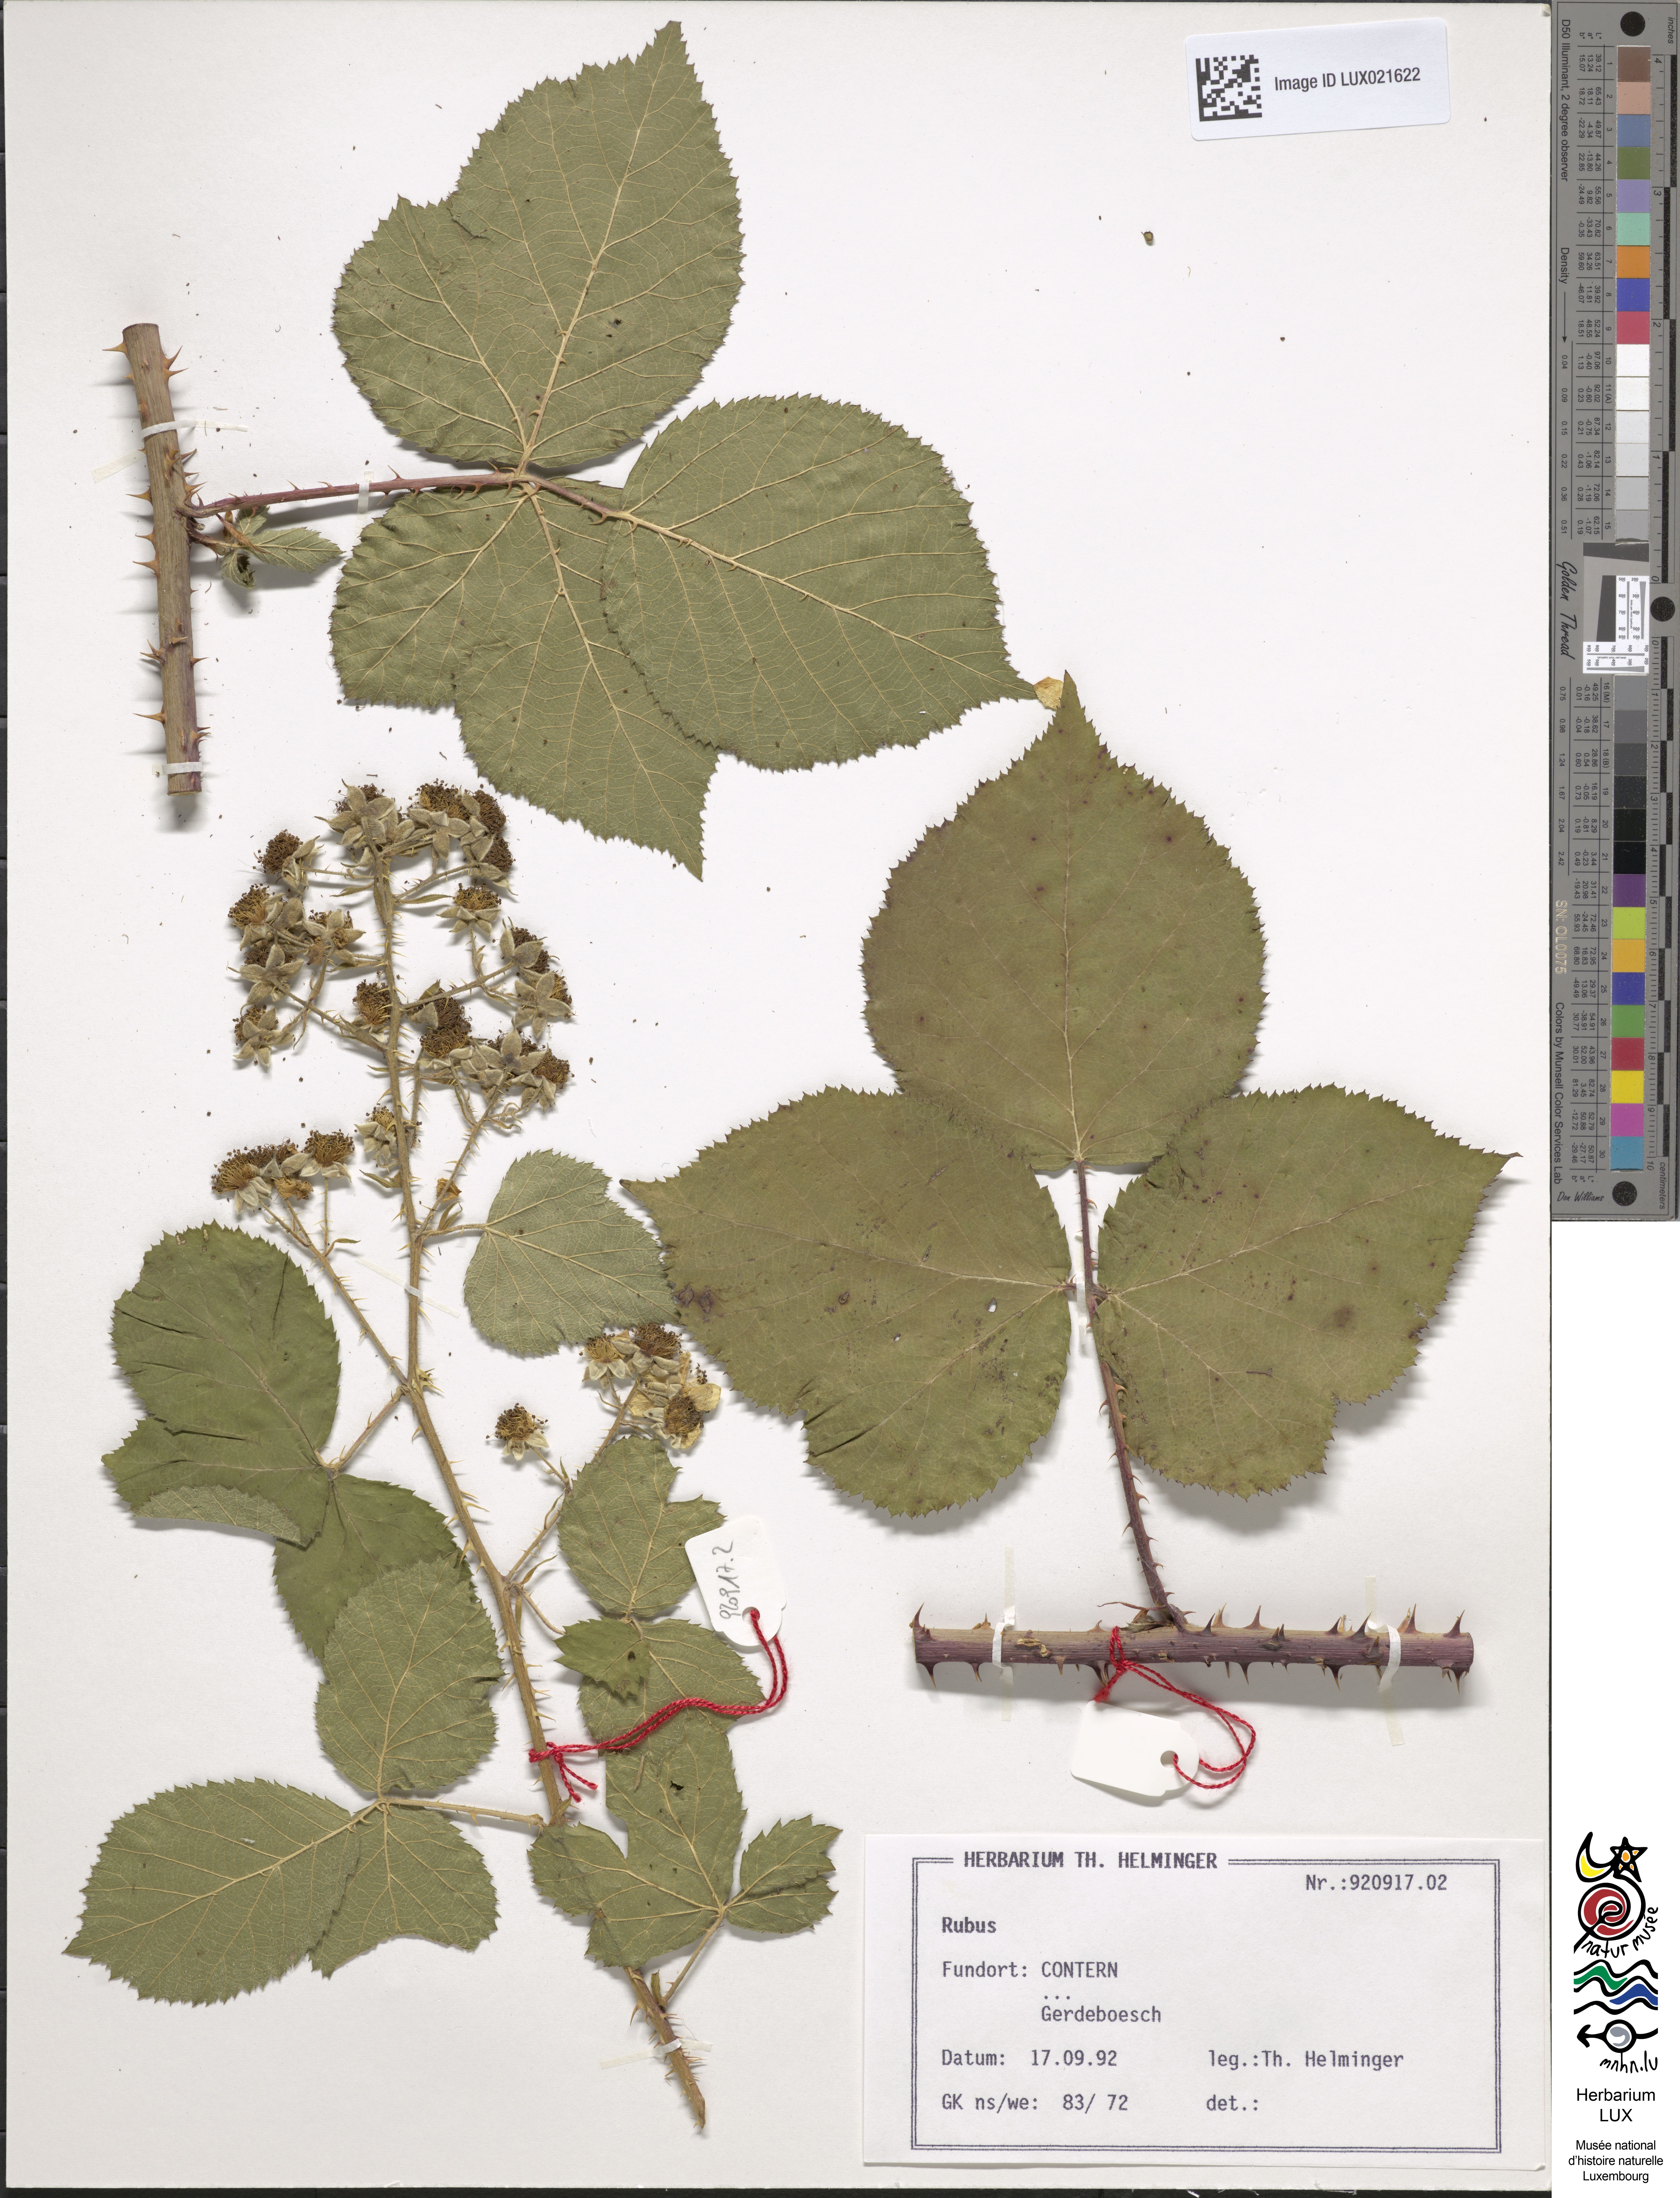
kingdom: Plantae
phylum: Tracheophyta
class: Magnoliopsida
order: Rosales
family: Rosaceae
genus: Rubus
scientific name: Rubus
